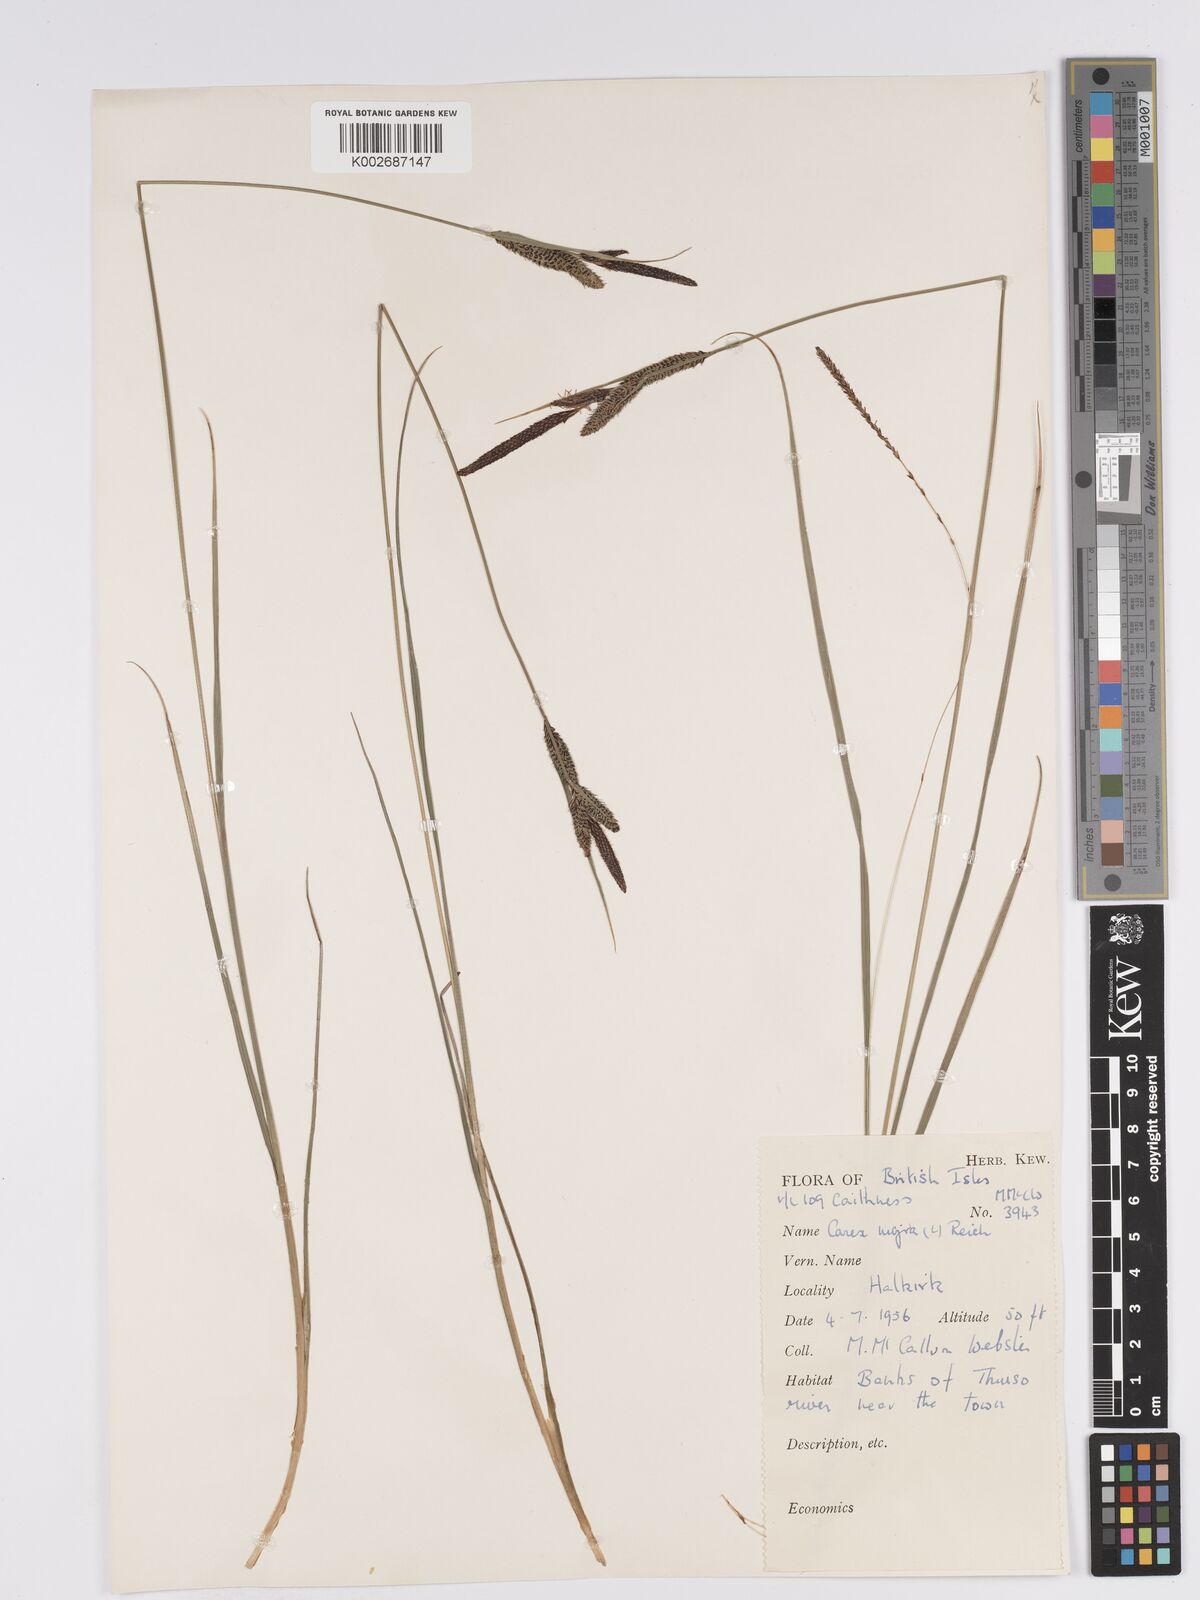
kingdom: Plantae
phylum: Tracheophyta
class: Liliopsida
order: Poales
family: Cyperaceae
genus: Carex
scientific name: Carex nigra
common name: Common sedge
